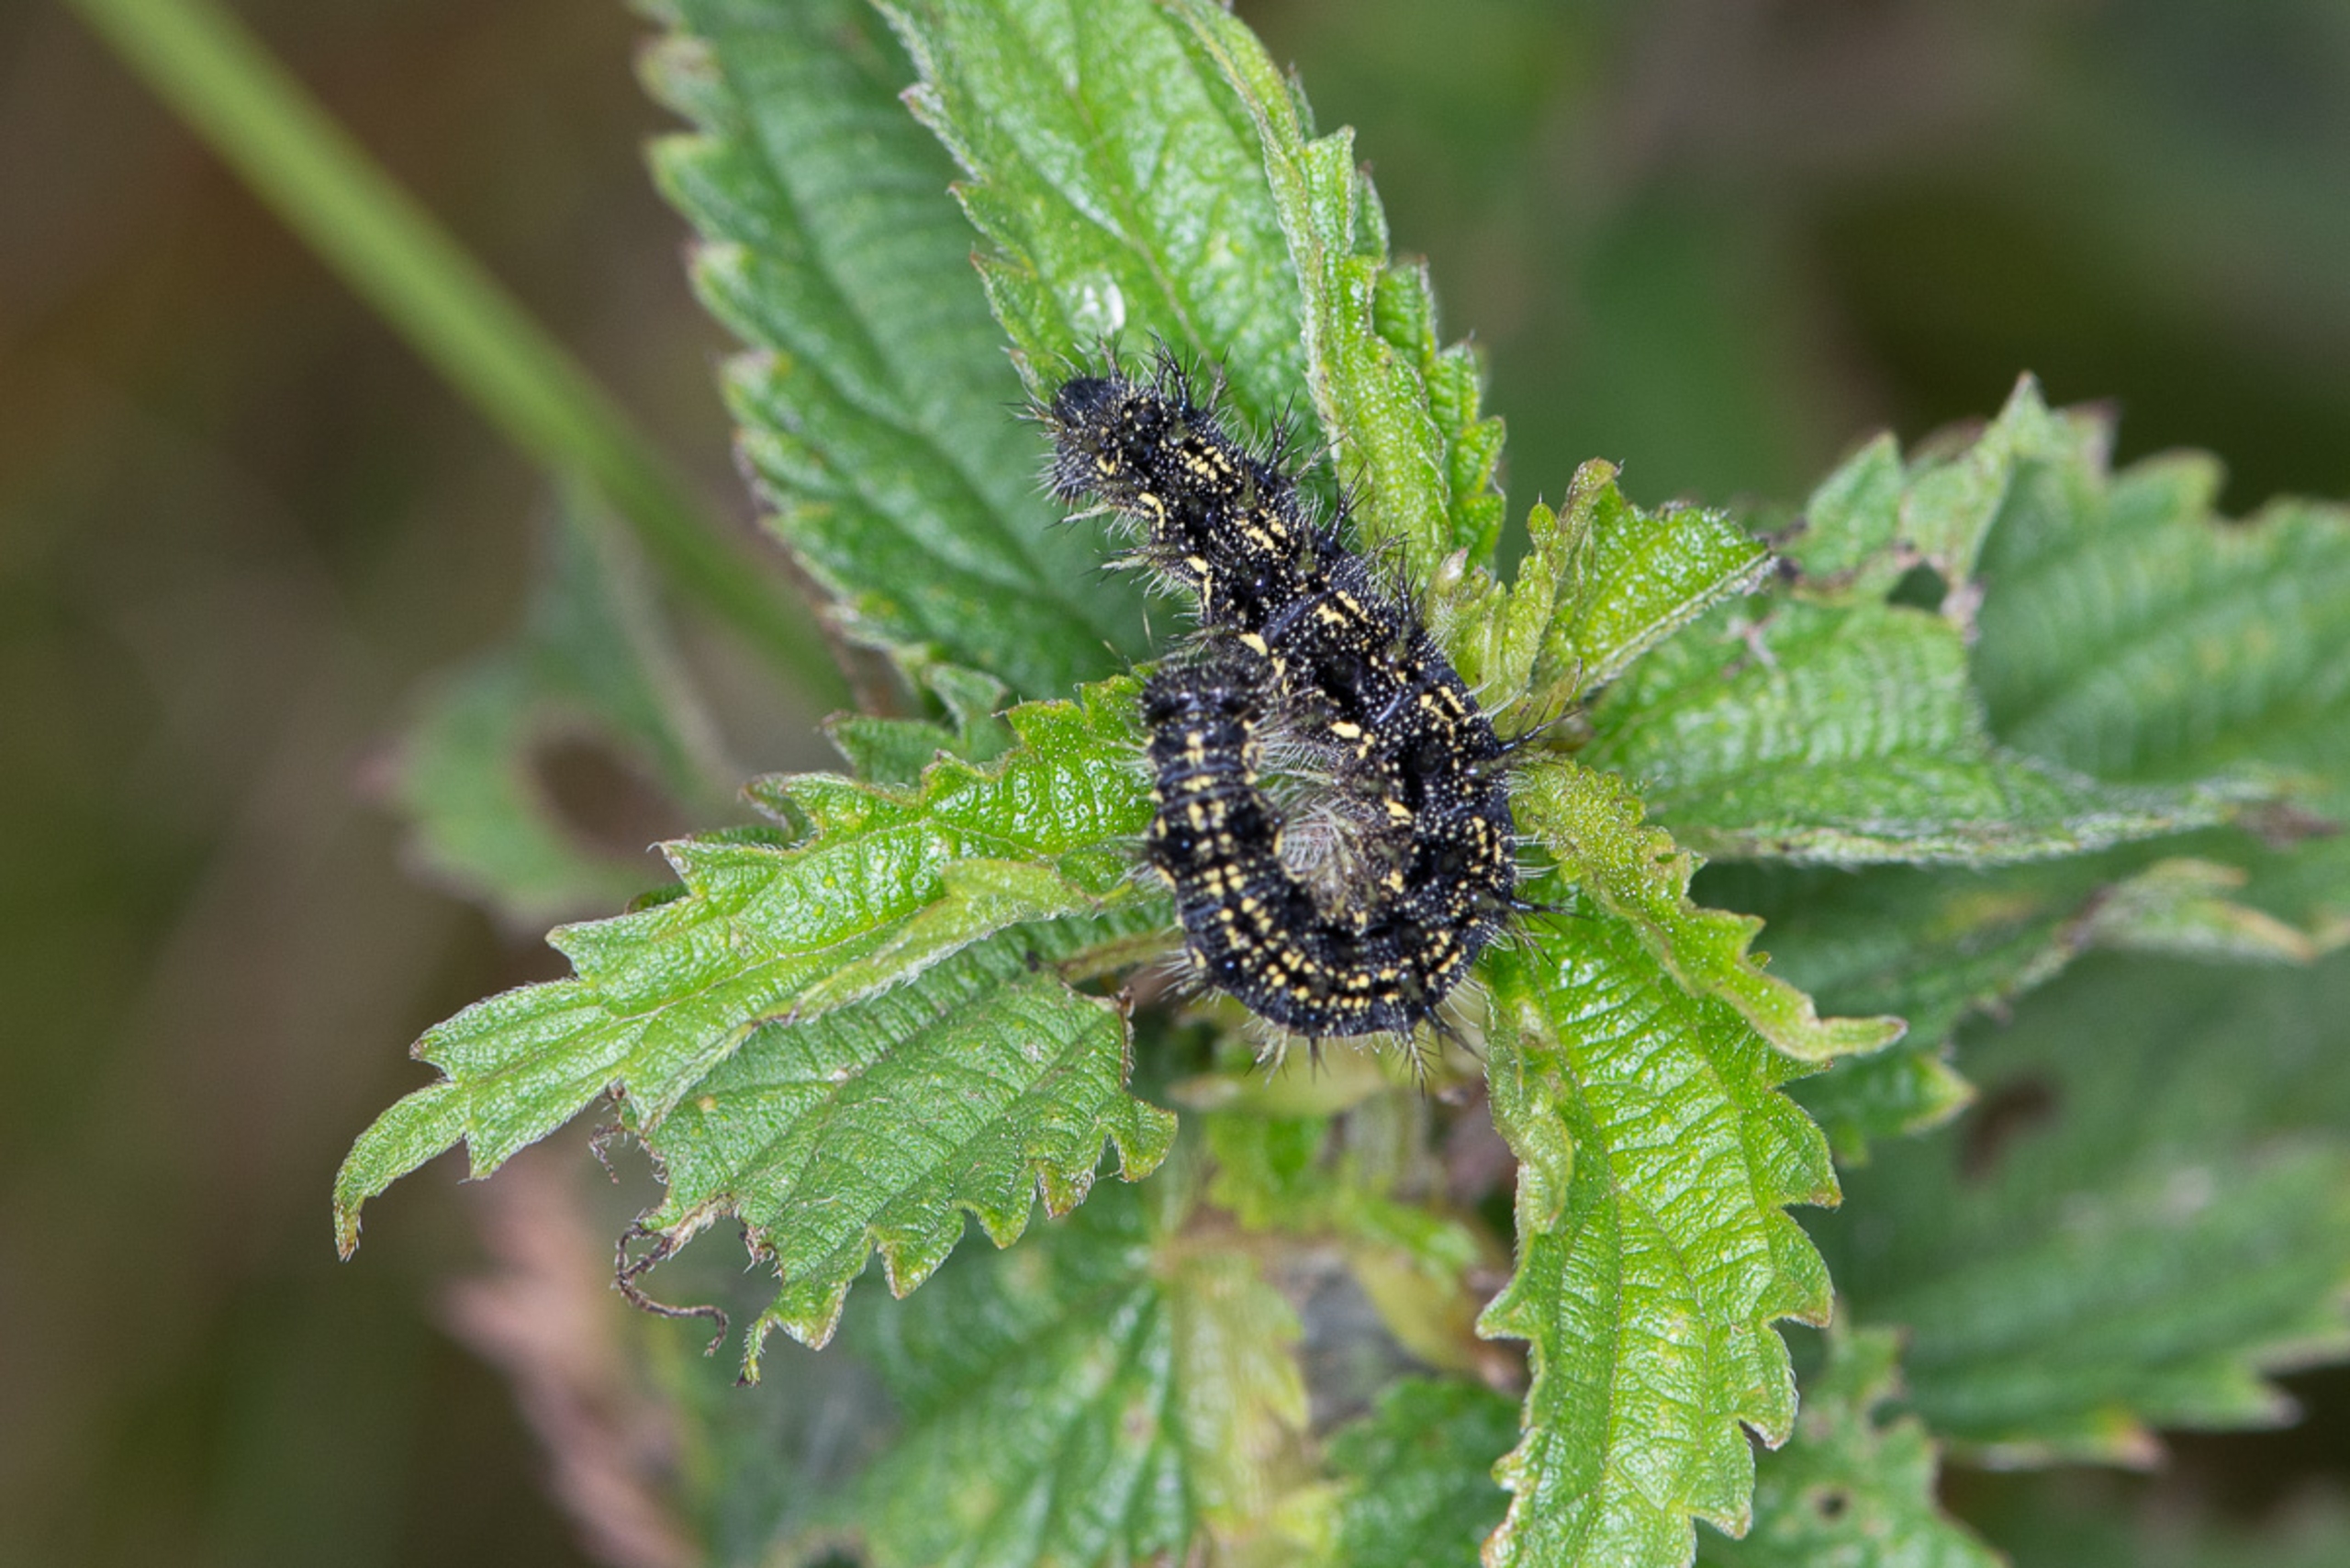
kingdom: Animalia
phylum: Arthropoda
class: Insecta
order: Lepidoptera
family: Nymphalidae
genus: Aglais
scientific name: Aglais urticae
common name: Nældens takvinge
